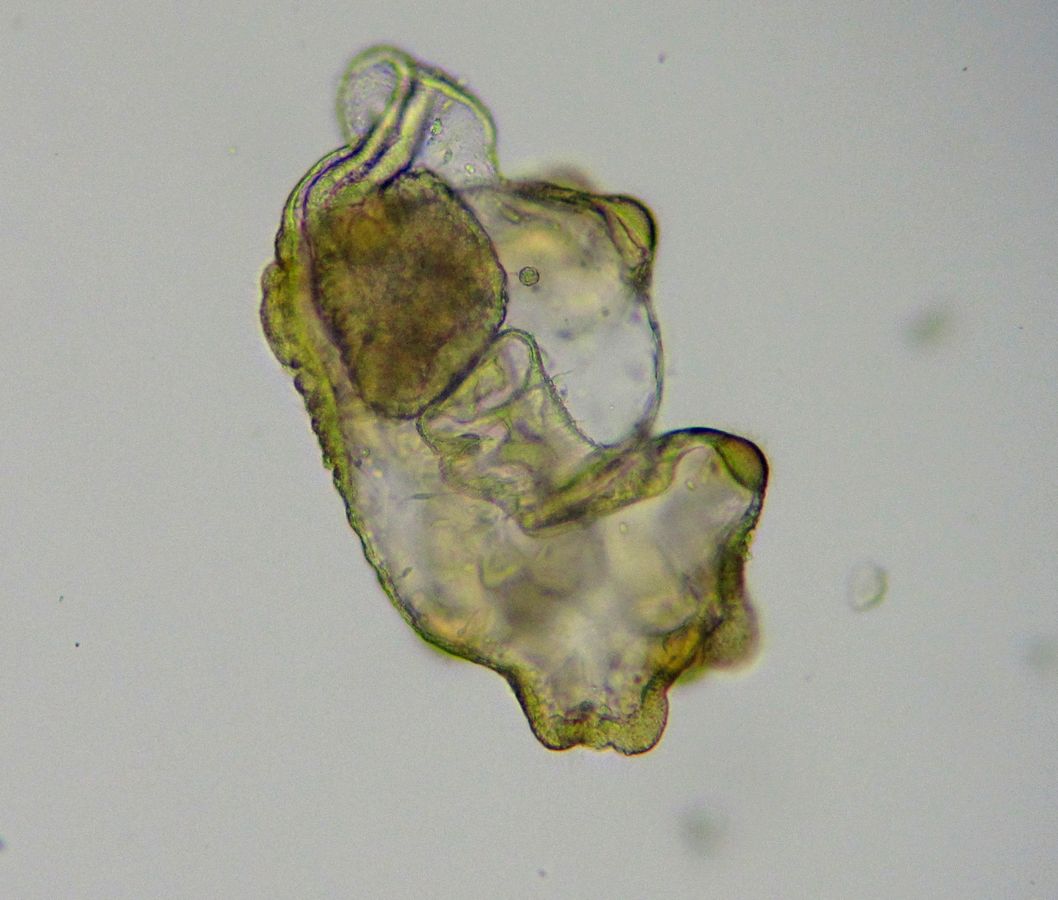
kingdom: Animalia
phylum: Echinodermata
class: Asteroidea
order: Forcipulatida
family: Asteriidae
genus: Asterias
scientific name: Asterias rubens
